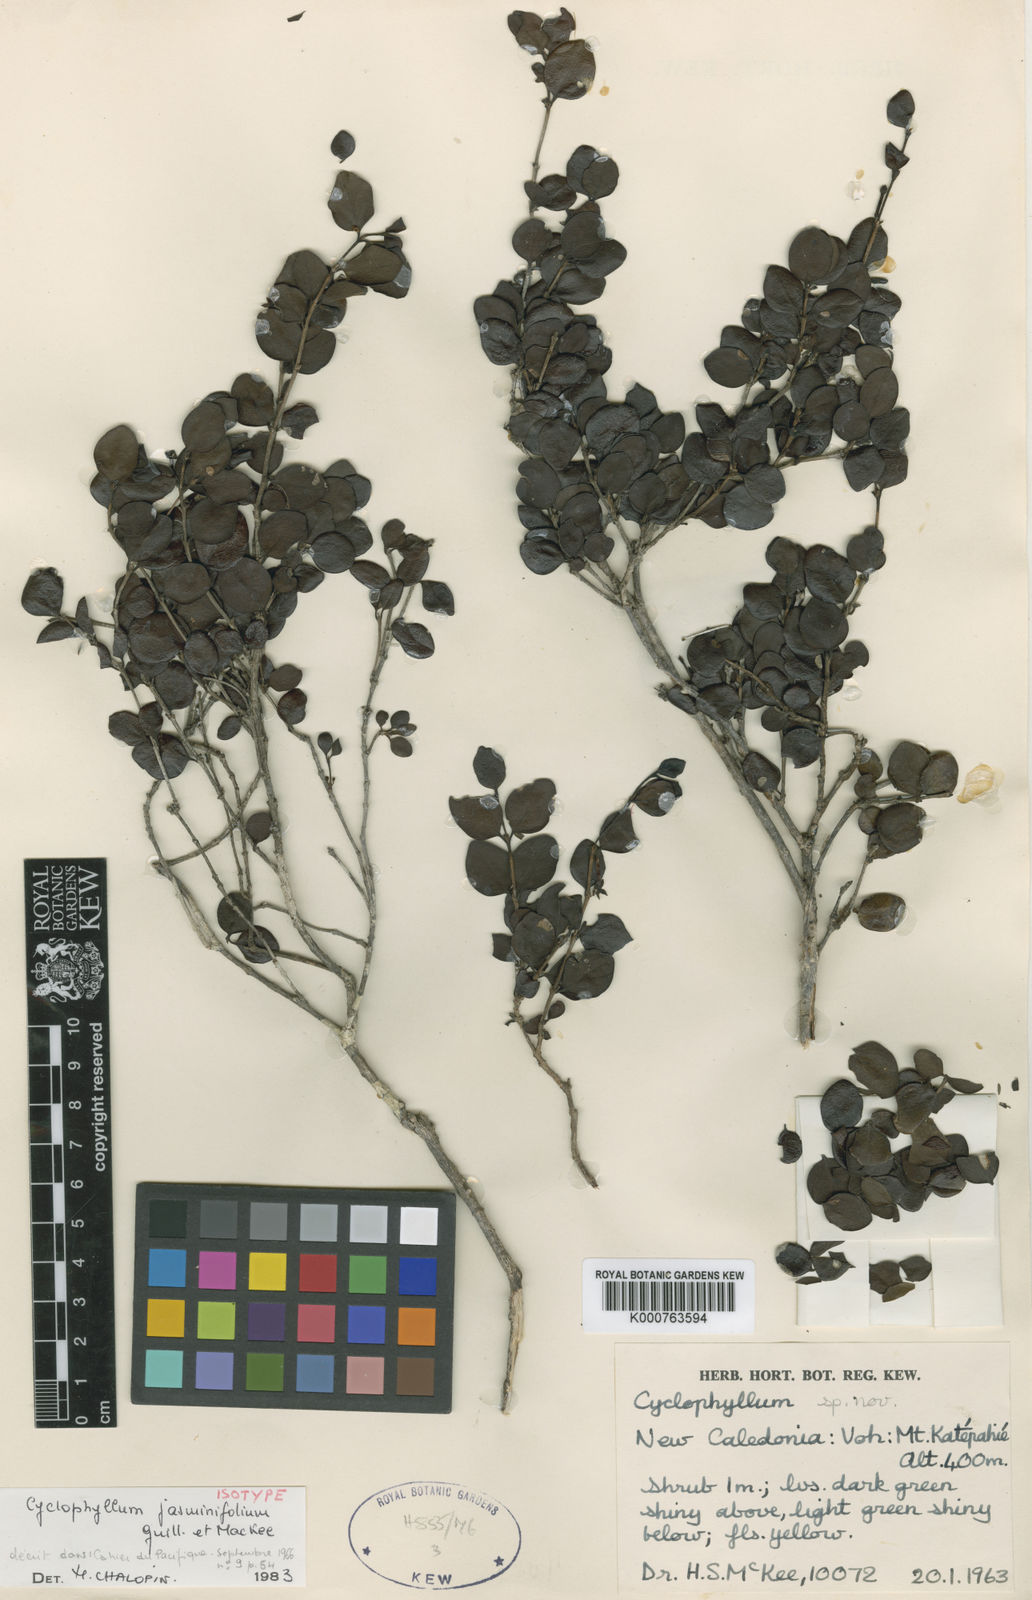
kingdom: Plantae
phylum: Tracheophyta
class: Magnoliopsida
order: Gentianales
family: Rubiaceae
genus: Cyclophyllum
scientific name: Cyclophyllum jasminifolium
